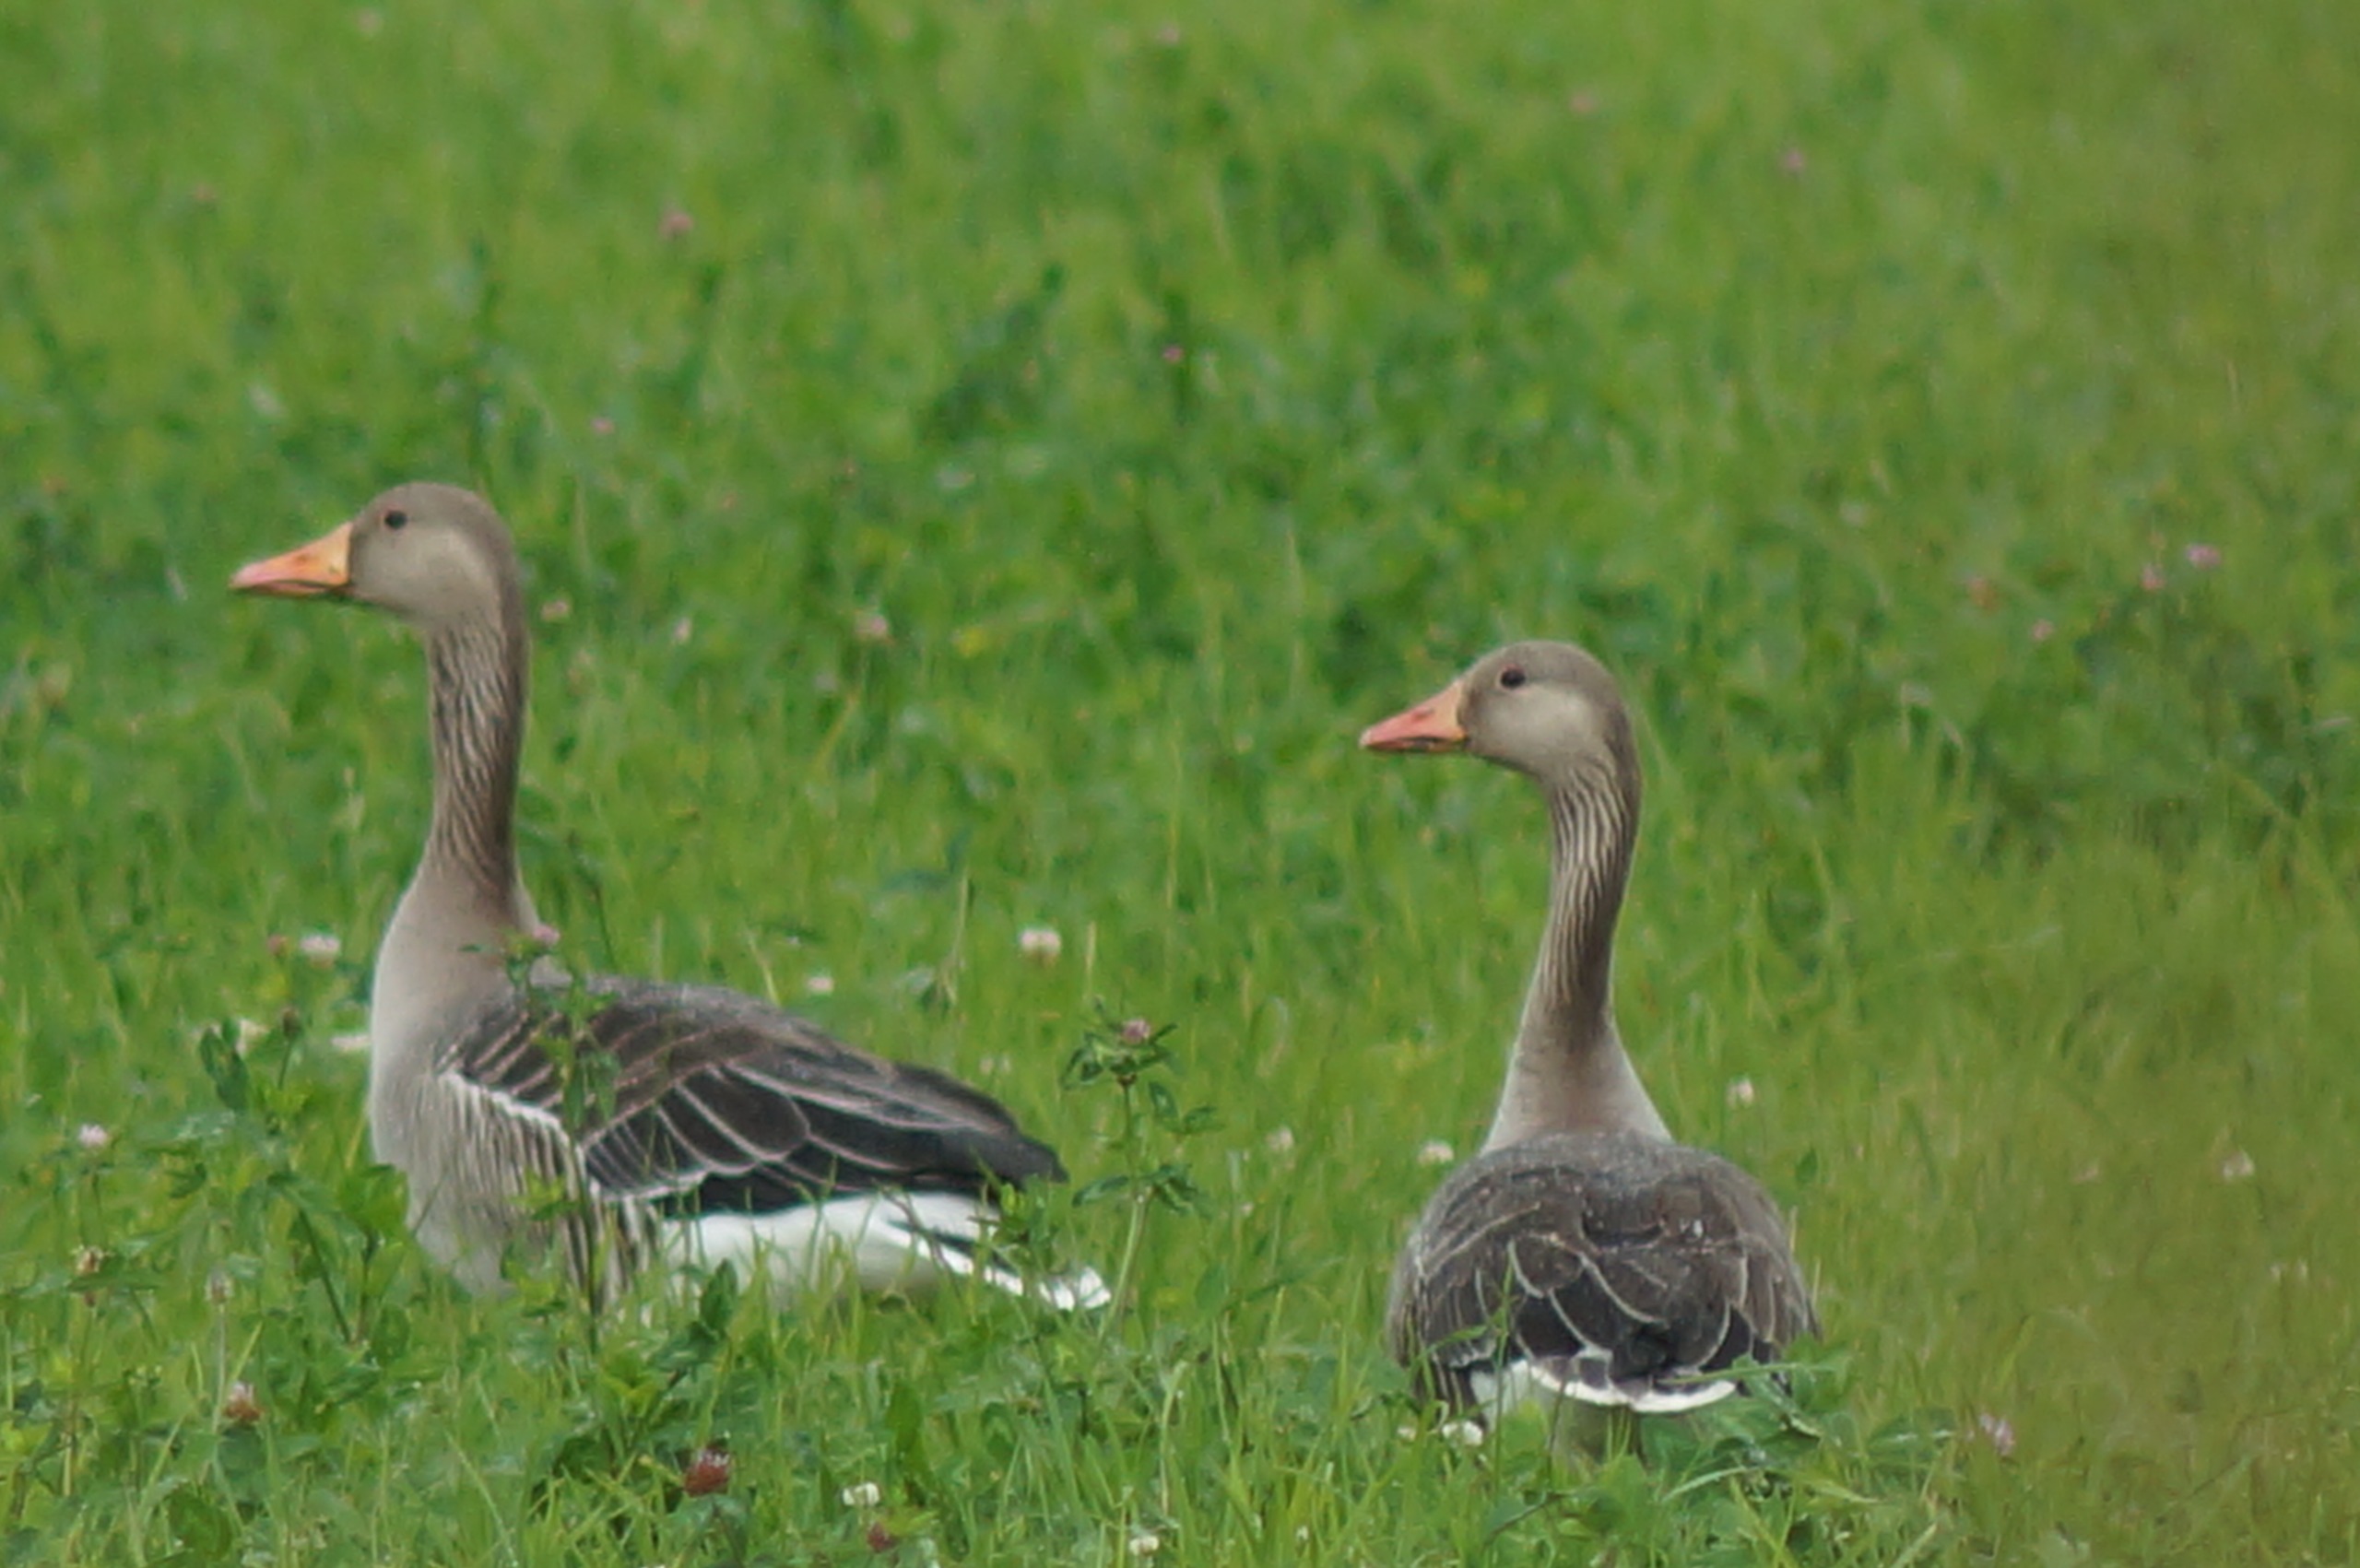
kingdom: Animalia
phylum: Chordata
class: Aves
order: Anseriformes
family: Anatidae
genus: Anser
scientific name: Anser anser
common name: Grågås
